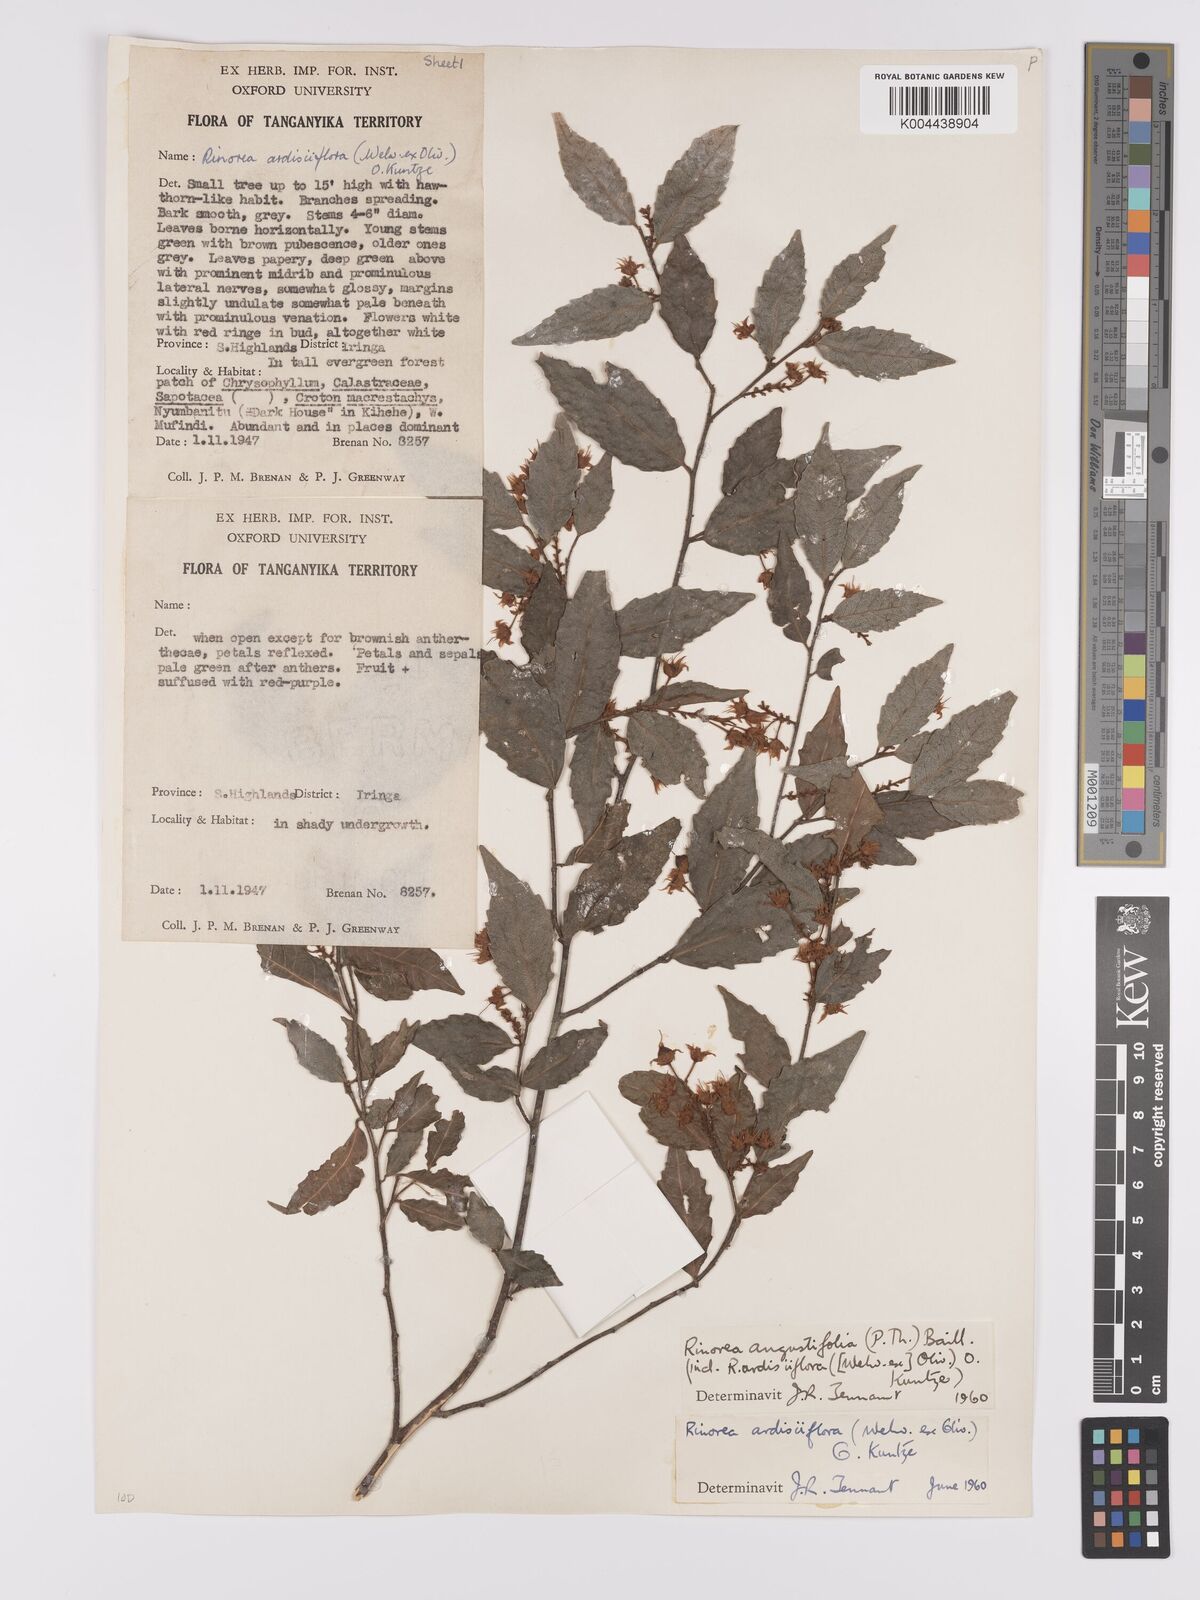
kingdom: Plantae
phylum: Tracheophyta
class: Magnoliopsida
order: Malpighiales
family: Violaceae
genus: Rinorea
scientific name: Rinorea angustifolia
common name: White violet-bush
